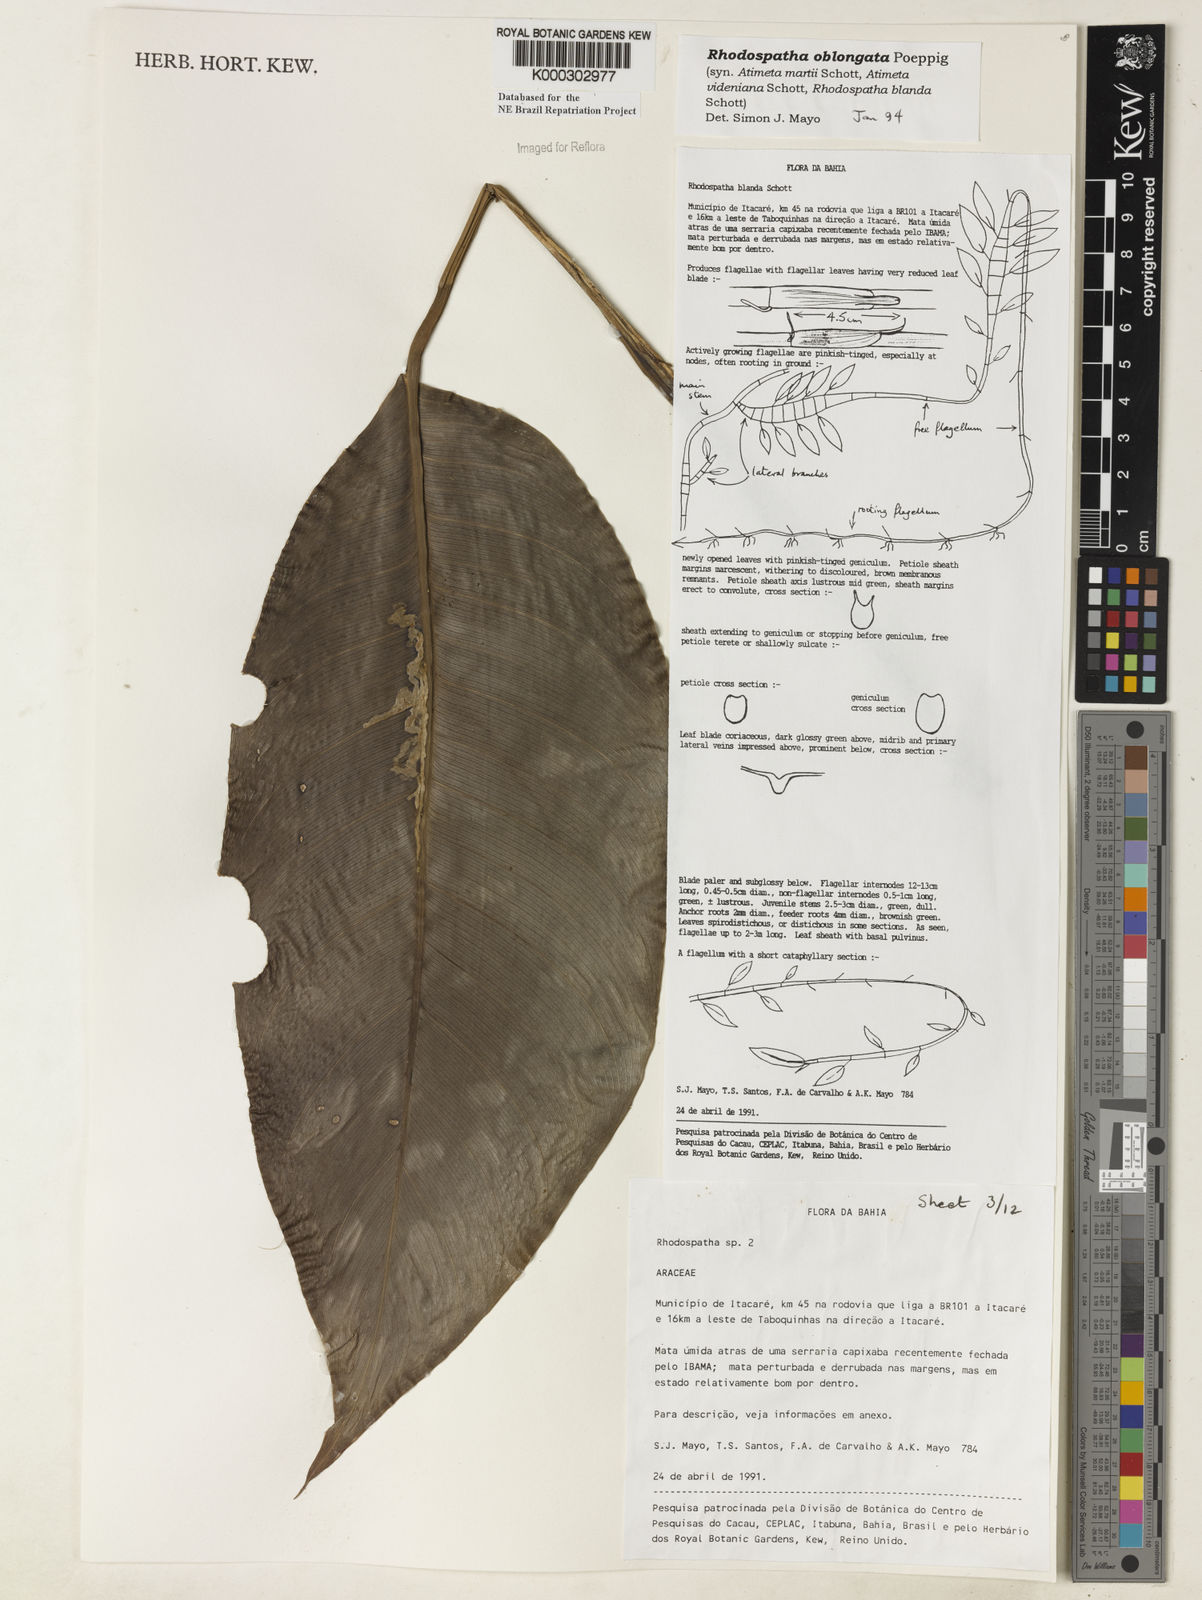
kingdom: Plantae
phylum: Tracheophyta
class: Liliopsida
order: Alismatales
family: Araceae
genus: Rhodospatha
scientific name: Rhodospatha oblongata
